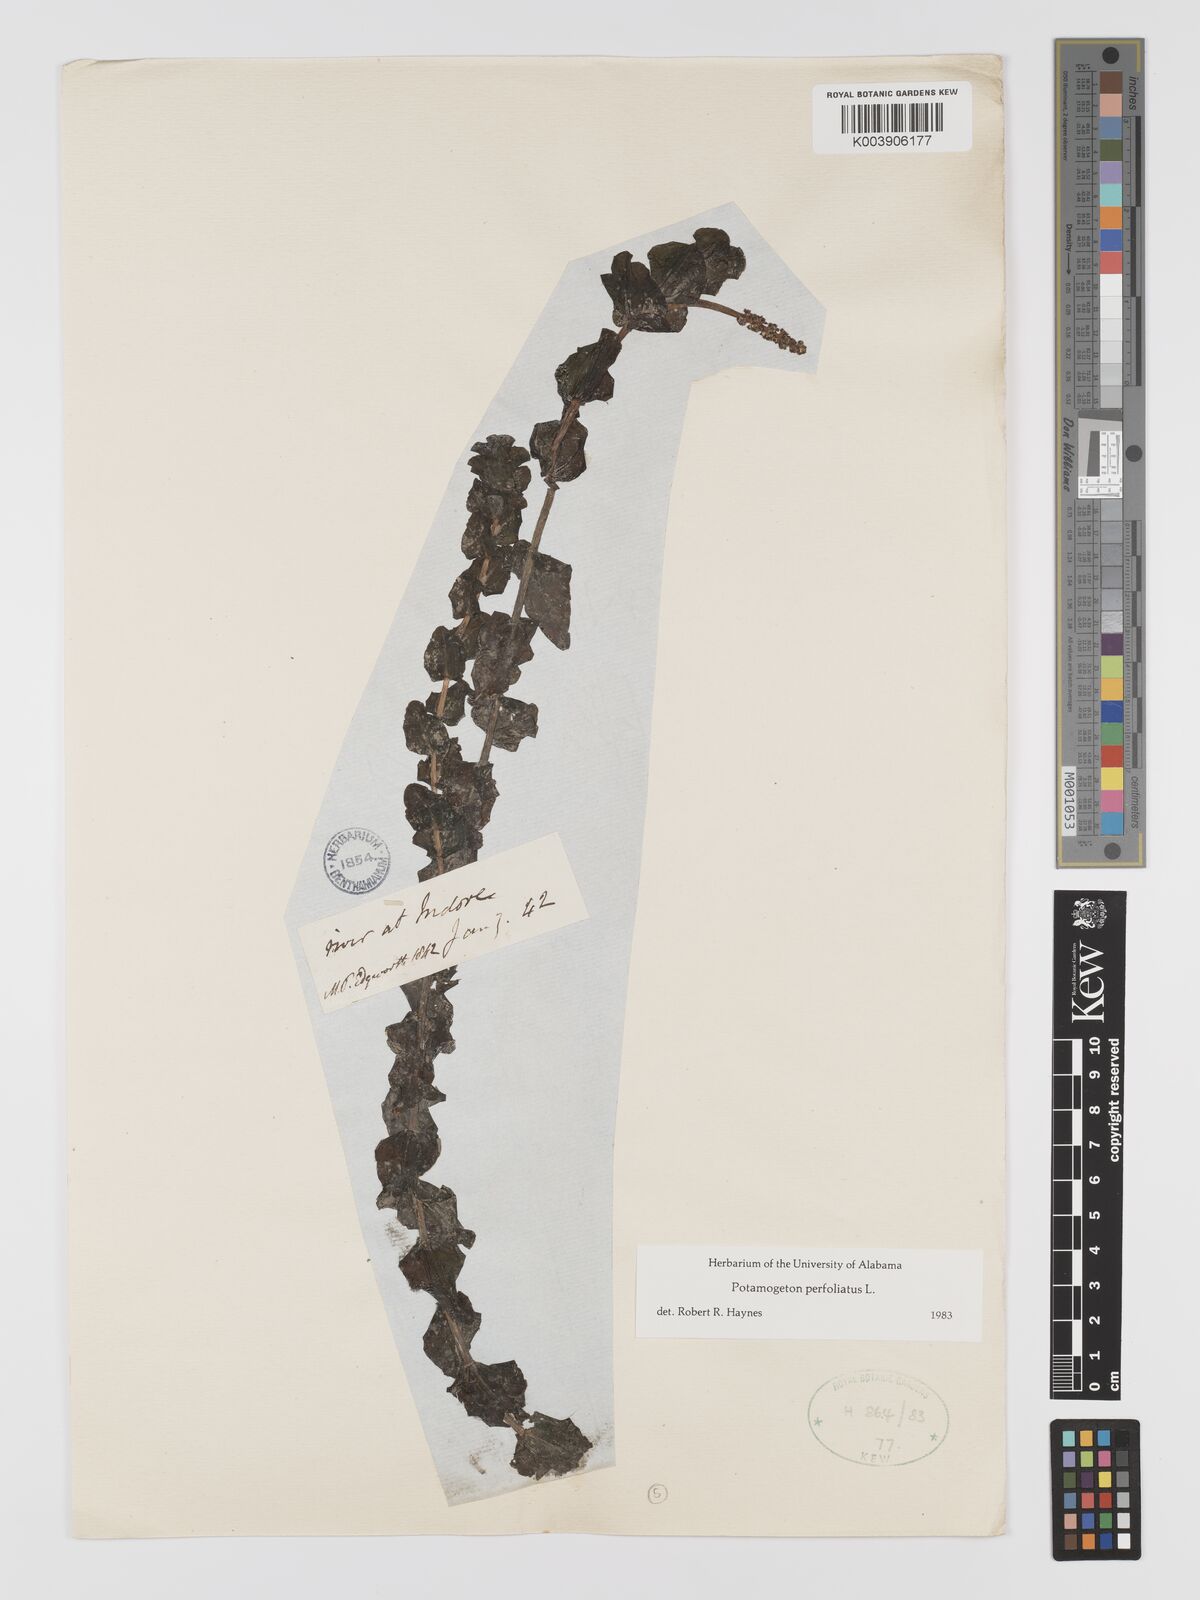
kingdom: Plantae
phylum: Tracheophyta
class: Liliopsida
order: Alismatales
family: Potamogetonaceae
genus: Potamogeton
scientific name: Potamogeton perfoliatus
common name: Perfoliate pondweed
